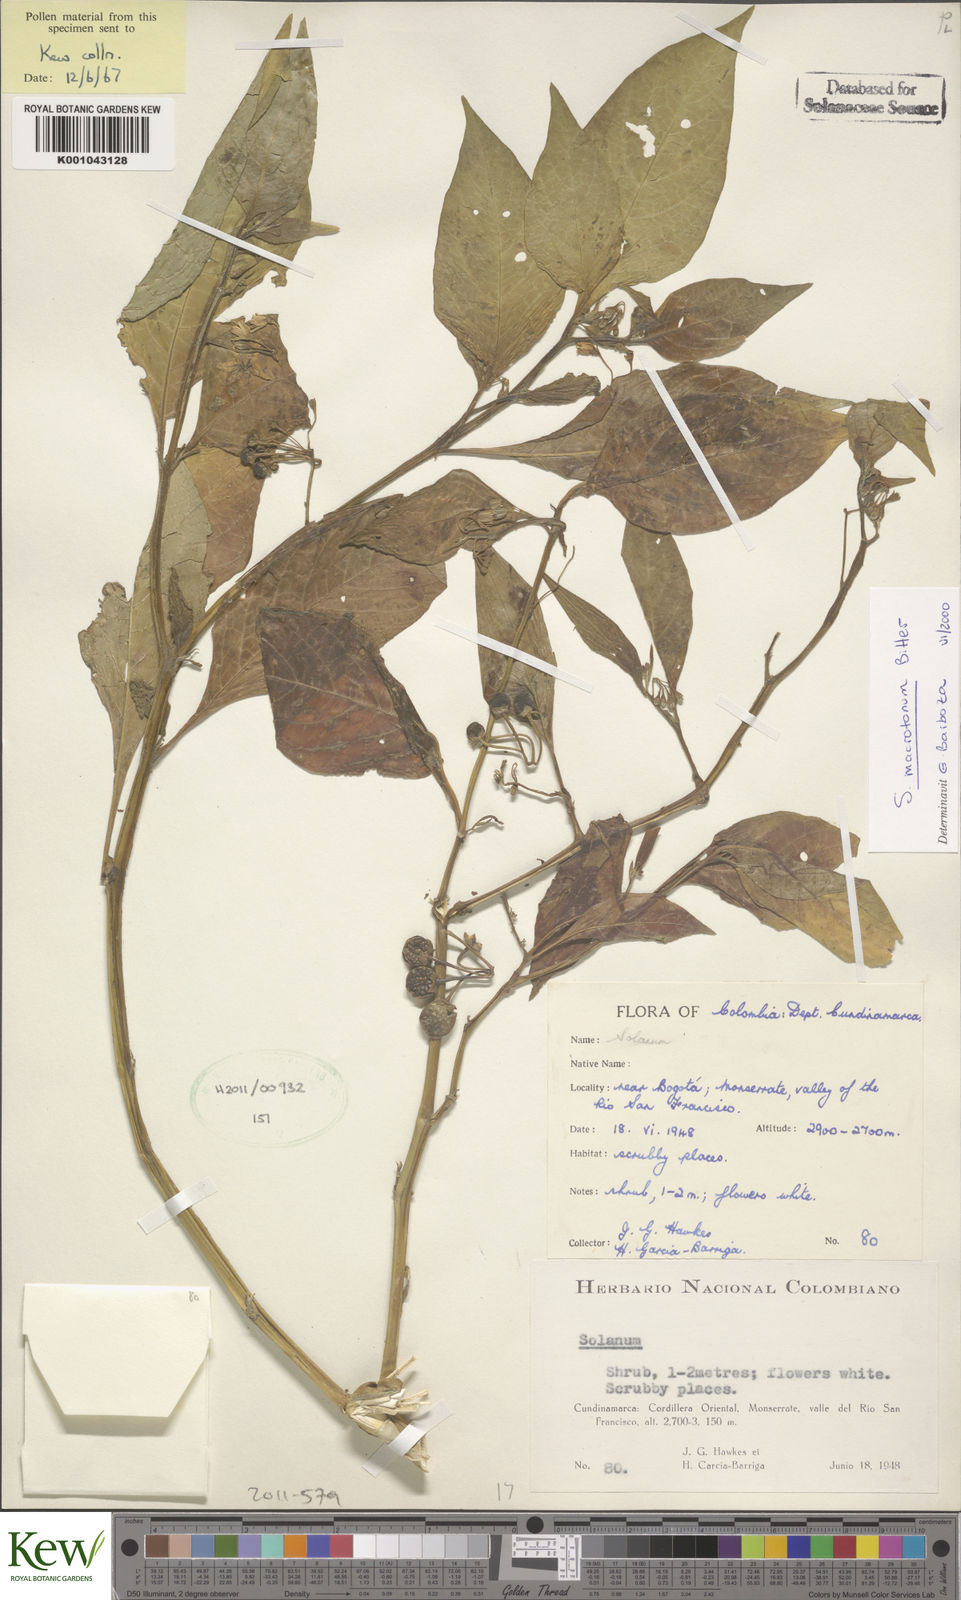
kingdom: Plantae
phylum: Tracheophyta
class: Magnoliopsida
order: Solanales
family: Solanaceae
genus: Solanum
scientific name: Solanum macrotonum
